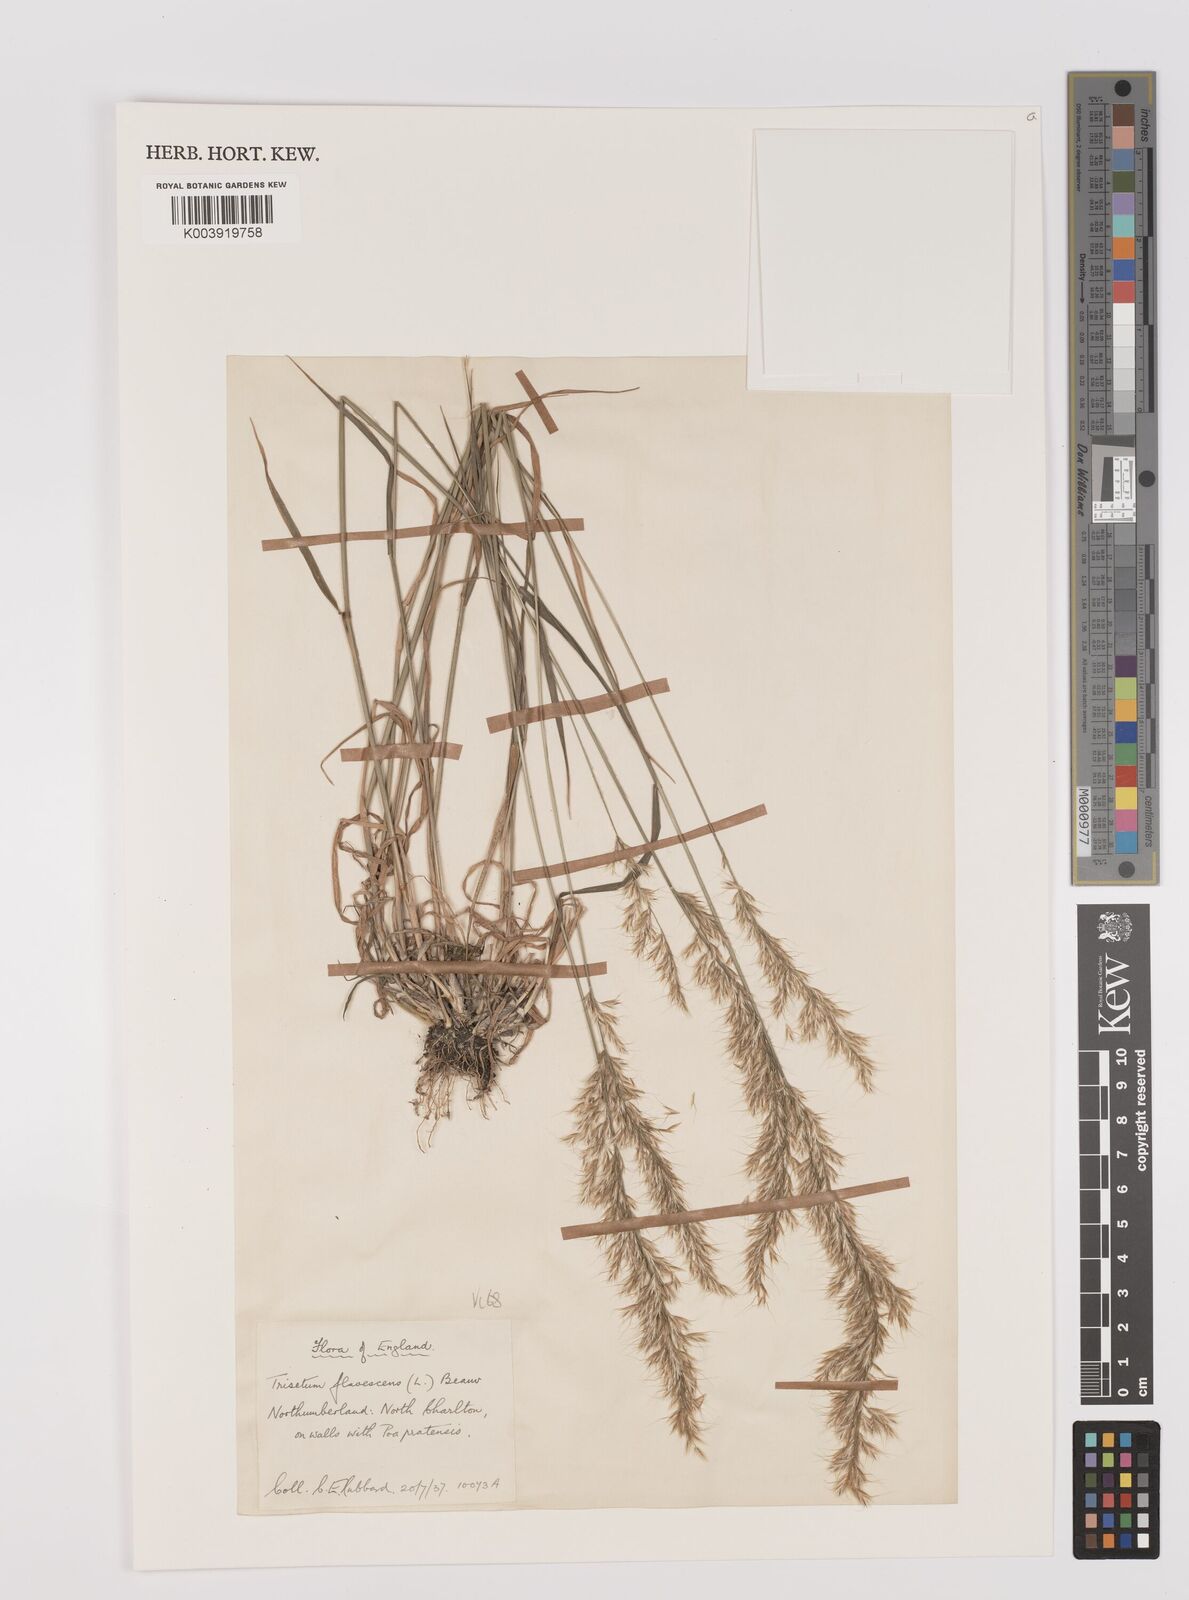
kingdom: Plantae
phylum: Tracheophyta
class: Liliopsida
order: Poales
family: Poaceae
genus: Trisetum
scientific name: Trisetum flavescens
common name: Yellow oat-grass
